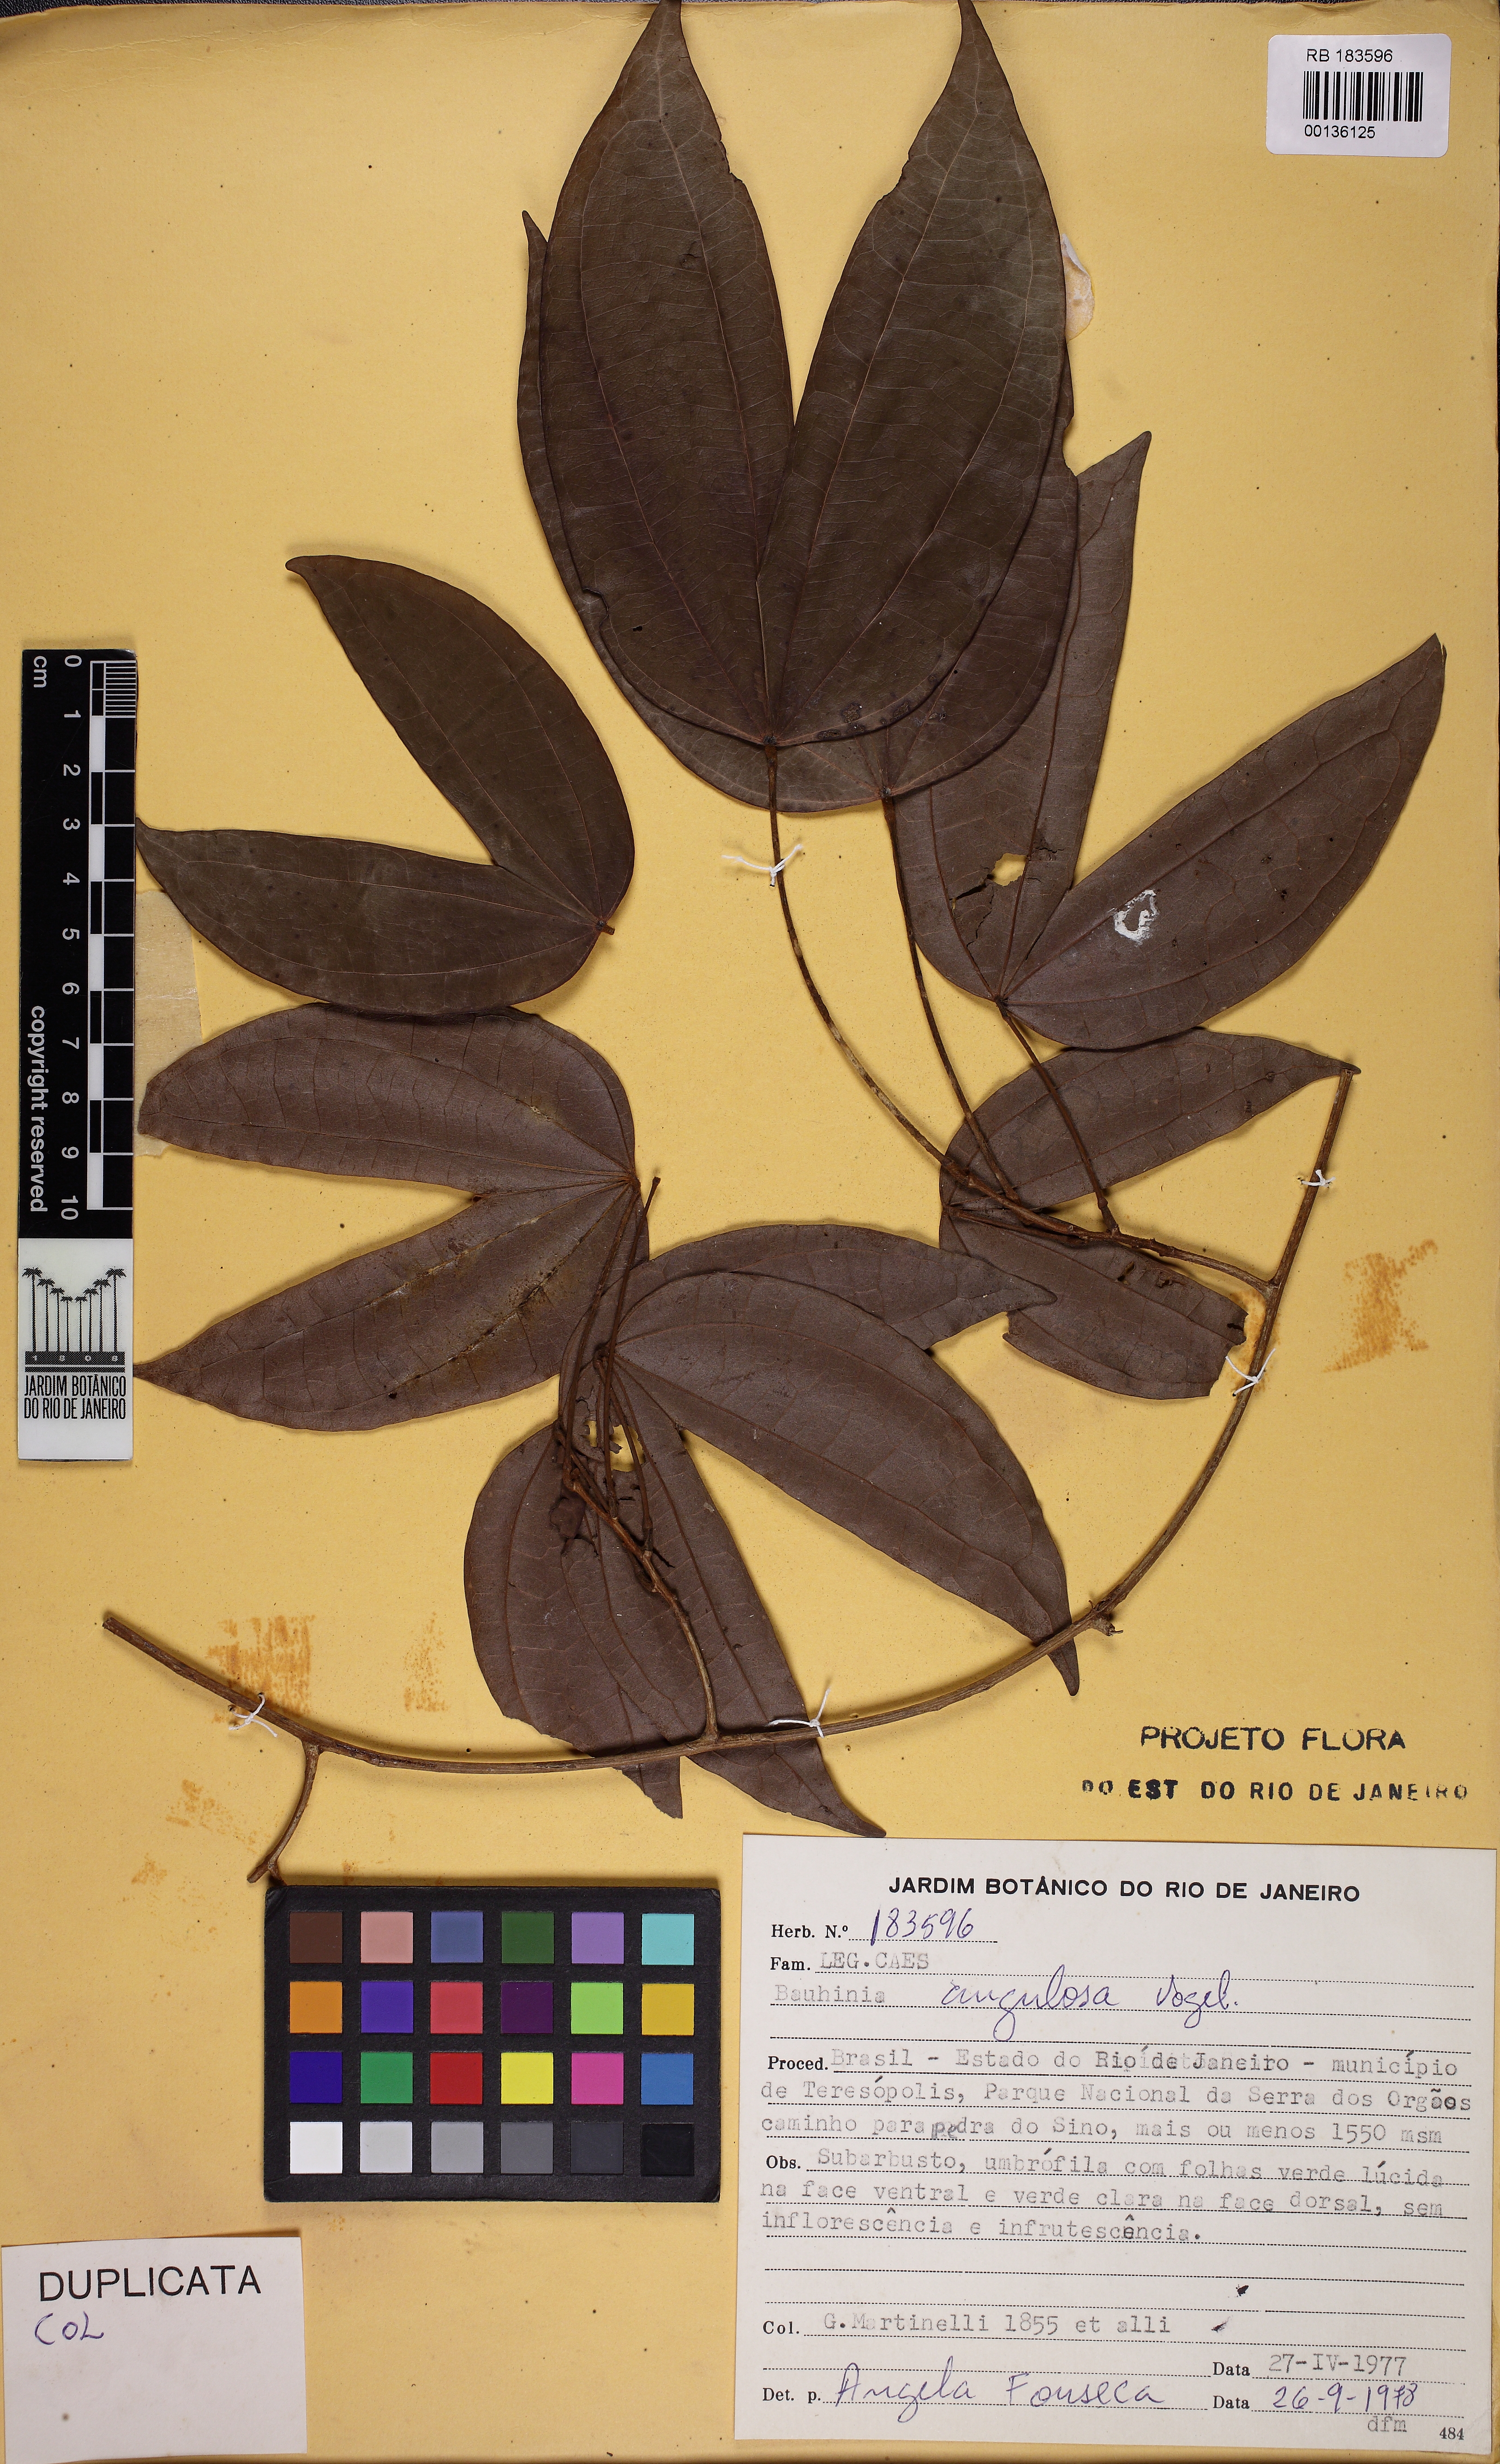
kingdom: Plantae
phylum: Tracheophyta
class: Magnoliopsida
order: Fabales
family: Fabaceae
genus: Schnella
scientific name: Schnella angulosa
